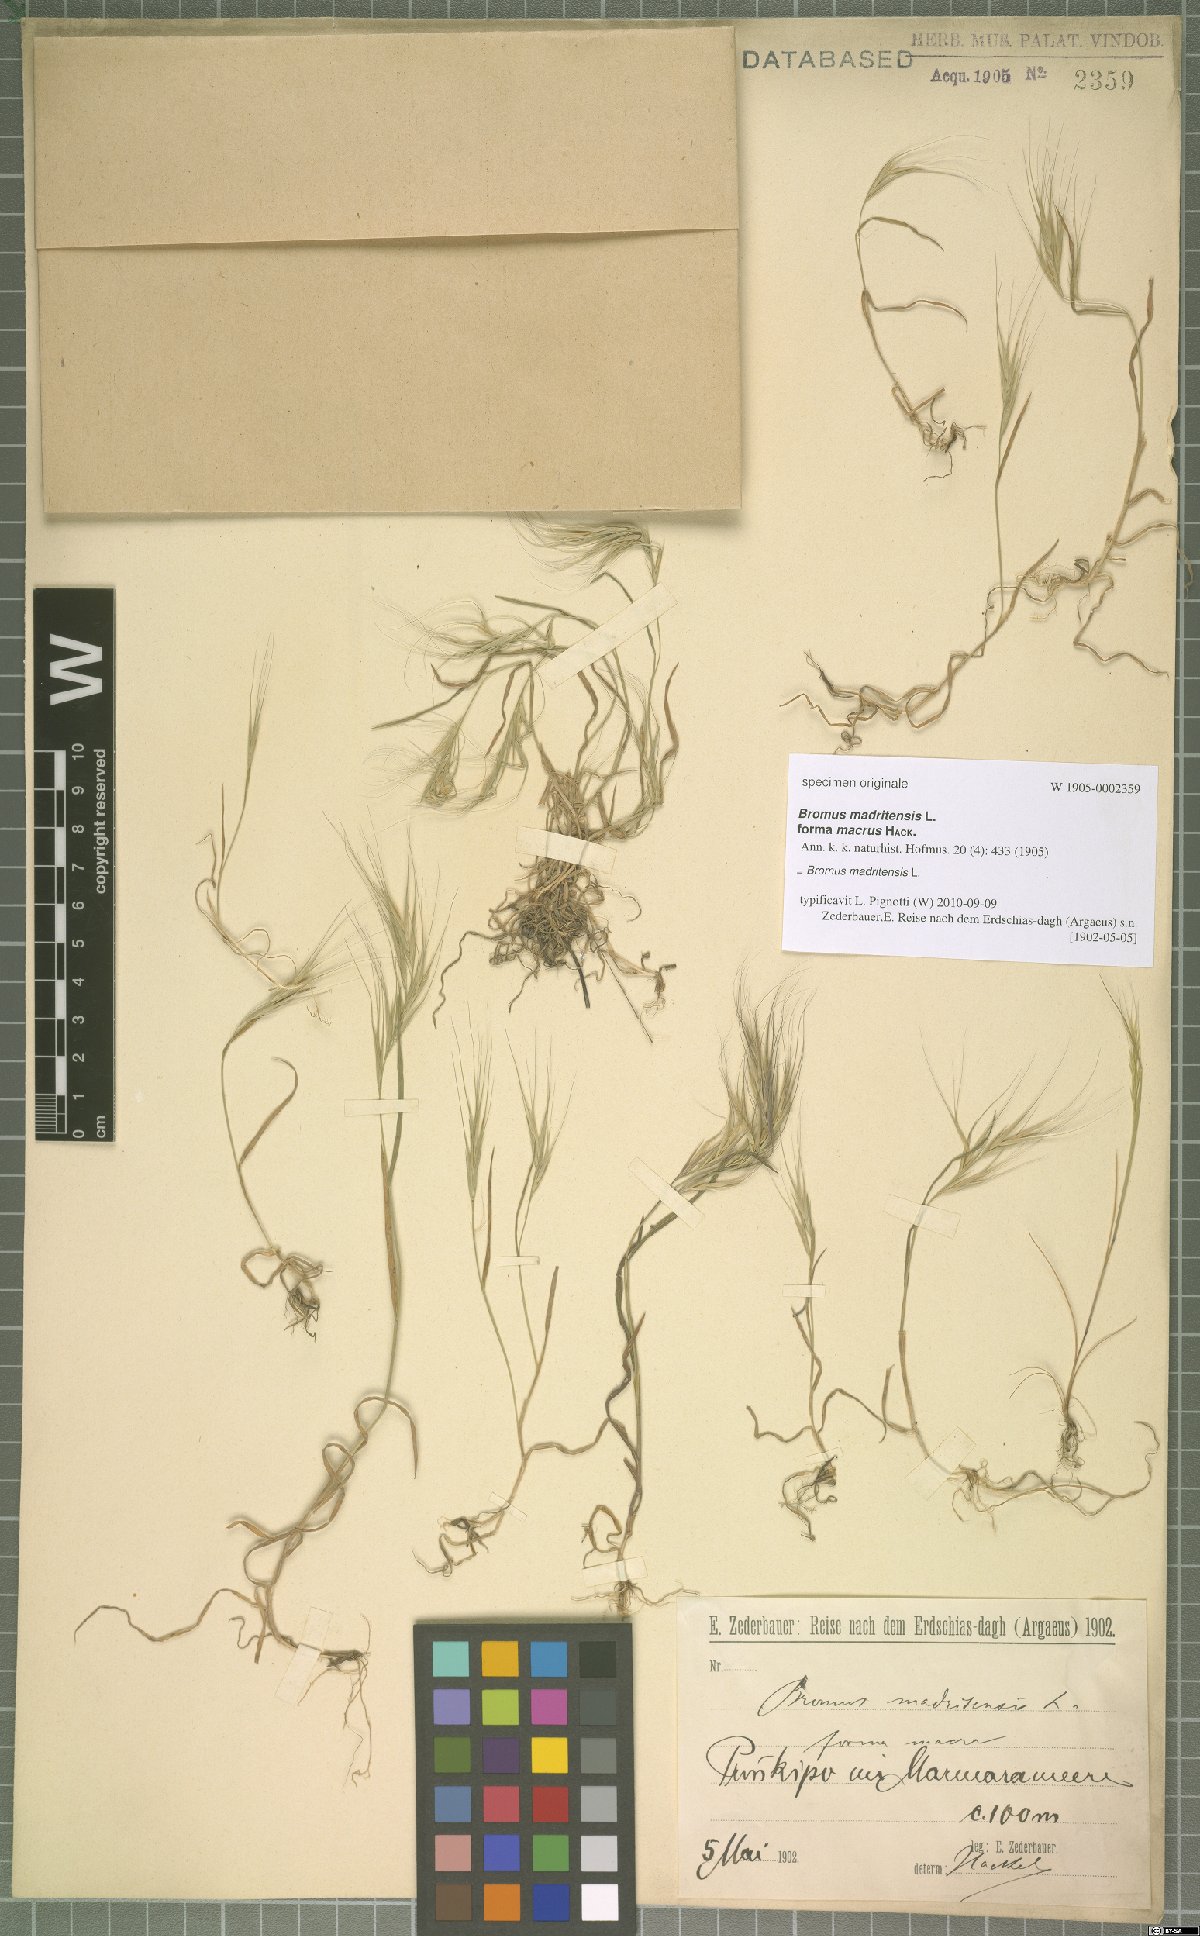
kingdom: Plantae
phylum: Tracheophyta
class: Liliopsida
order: Poales
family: Poaceae
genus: Bromus
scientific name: Bromus madritensis
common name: Compact brome
